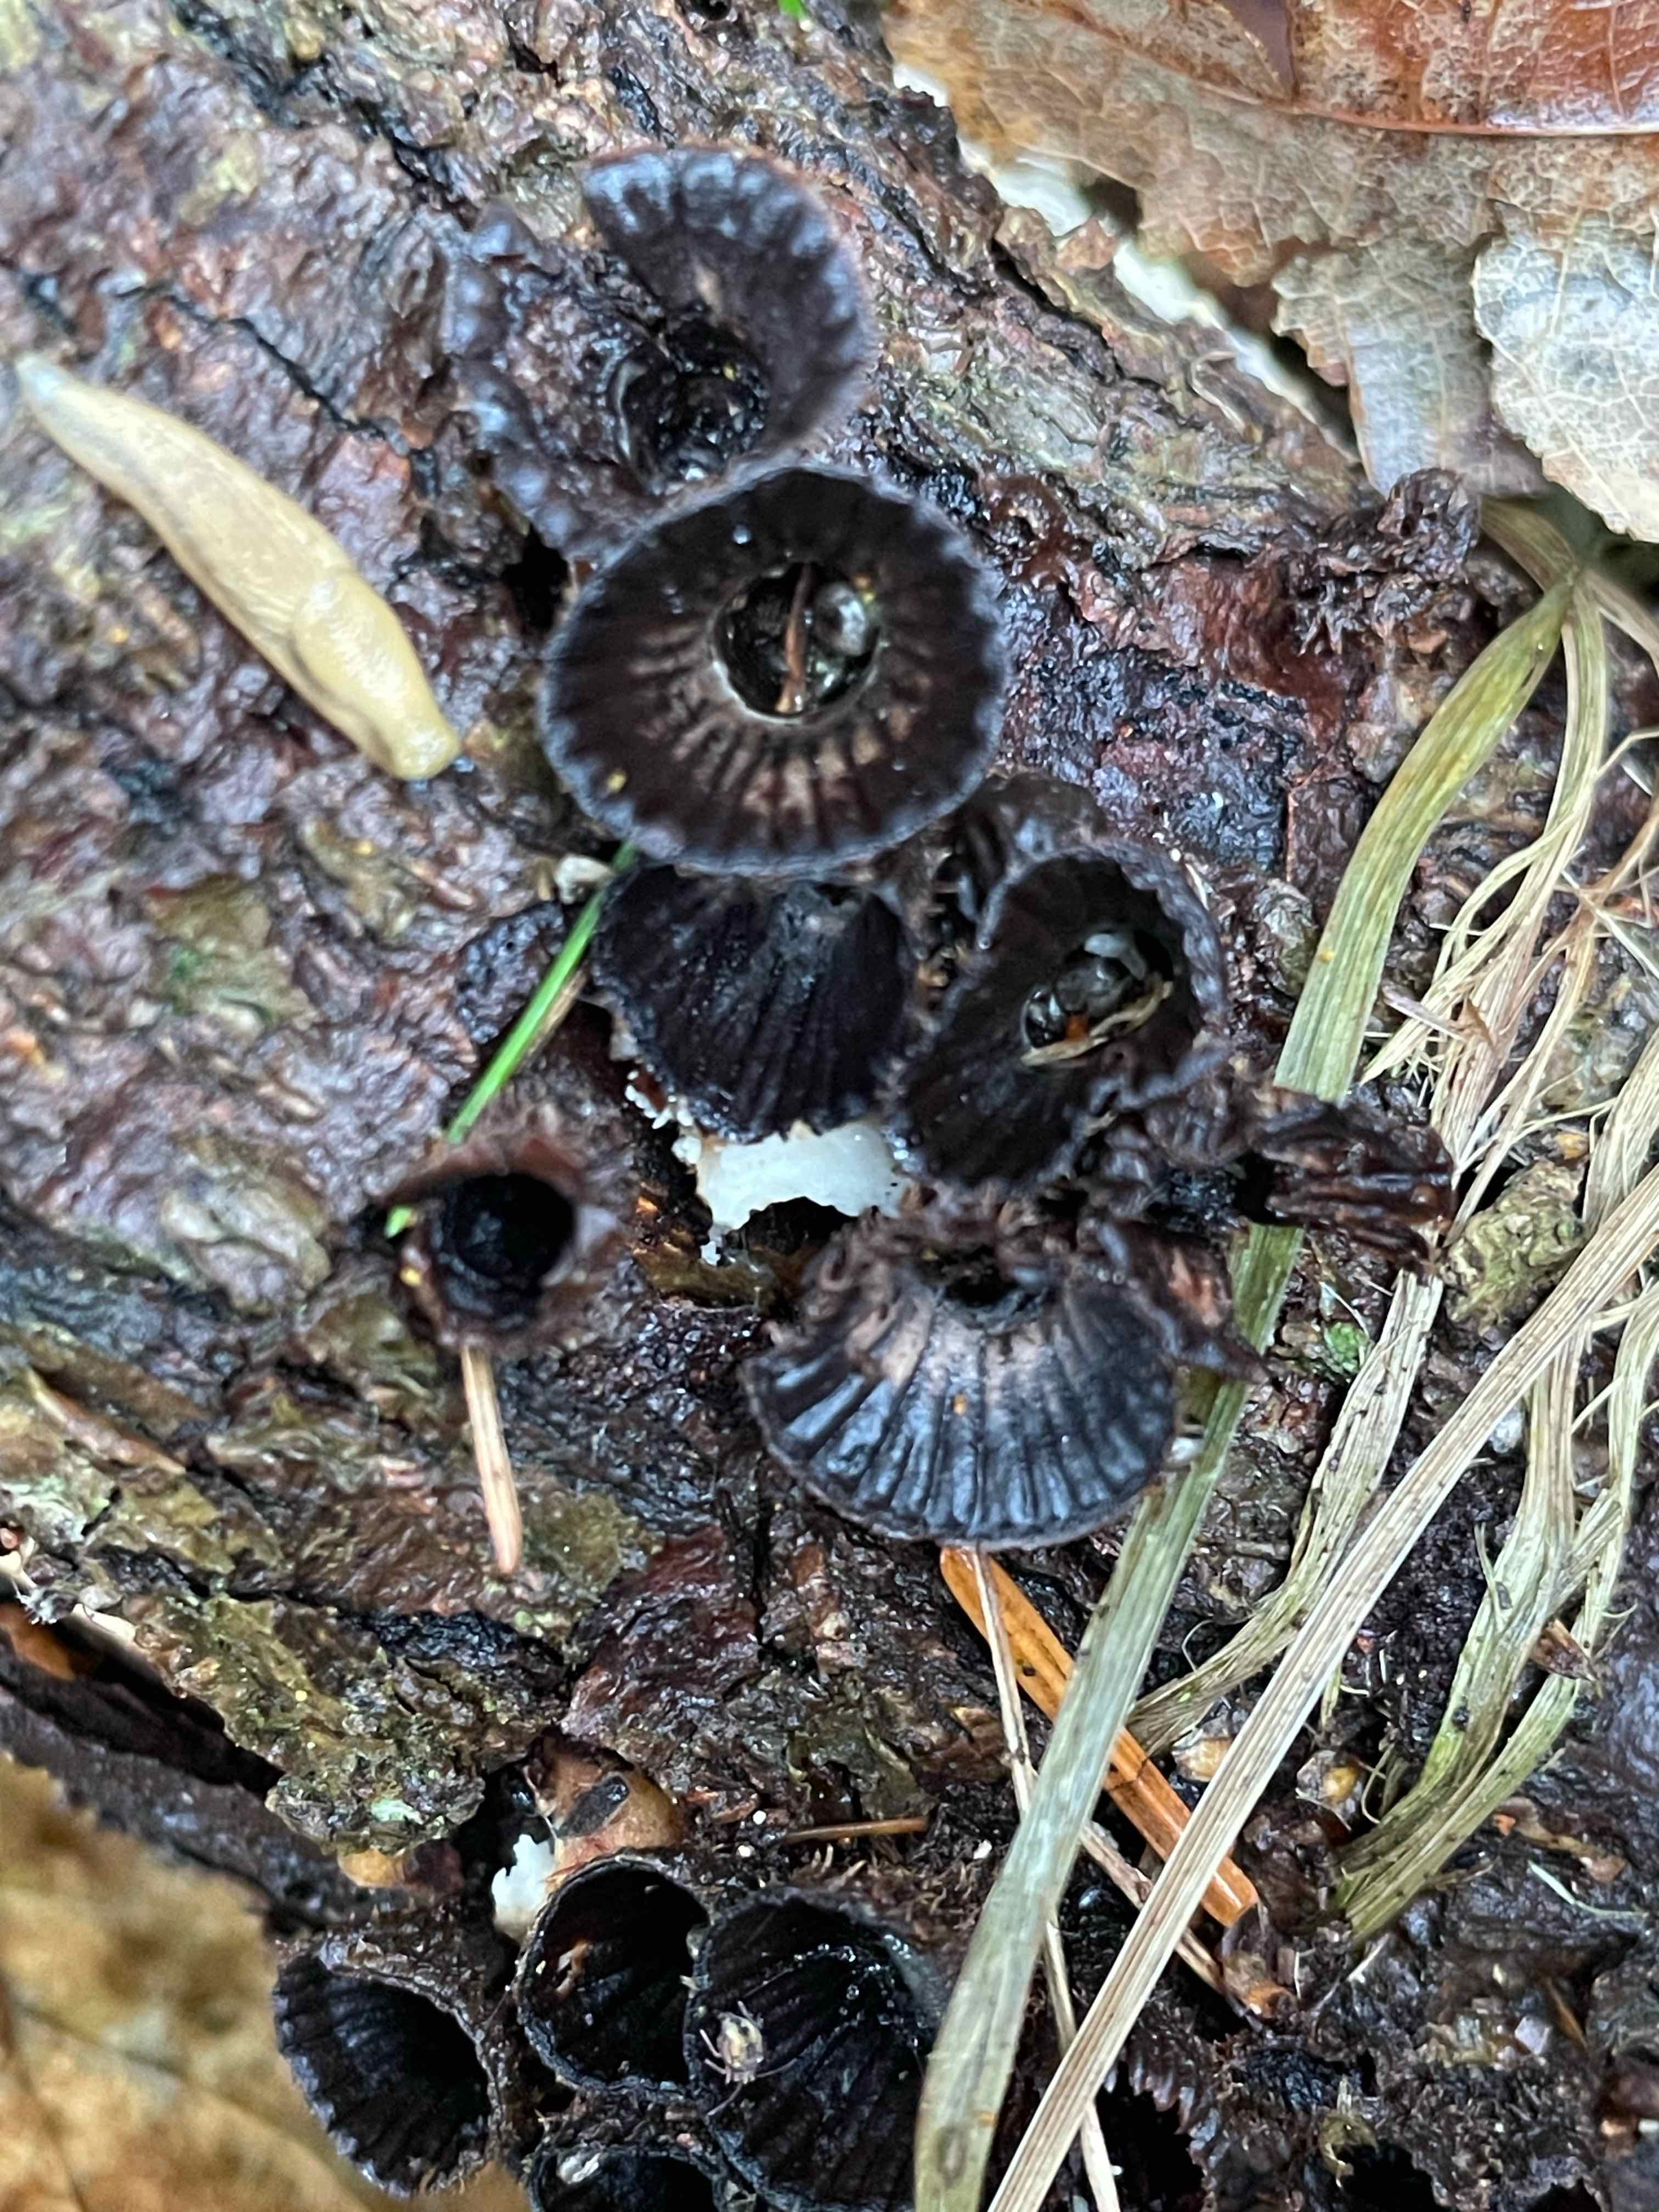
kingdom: Fungi
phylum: Basidiomycota
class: Agaricomycetes
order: Agaricales
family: Agaricaceae
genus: Cyathus
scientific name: Cyathus striatus
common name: stribet redesvamp
